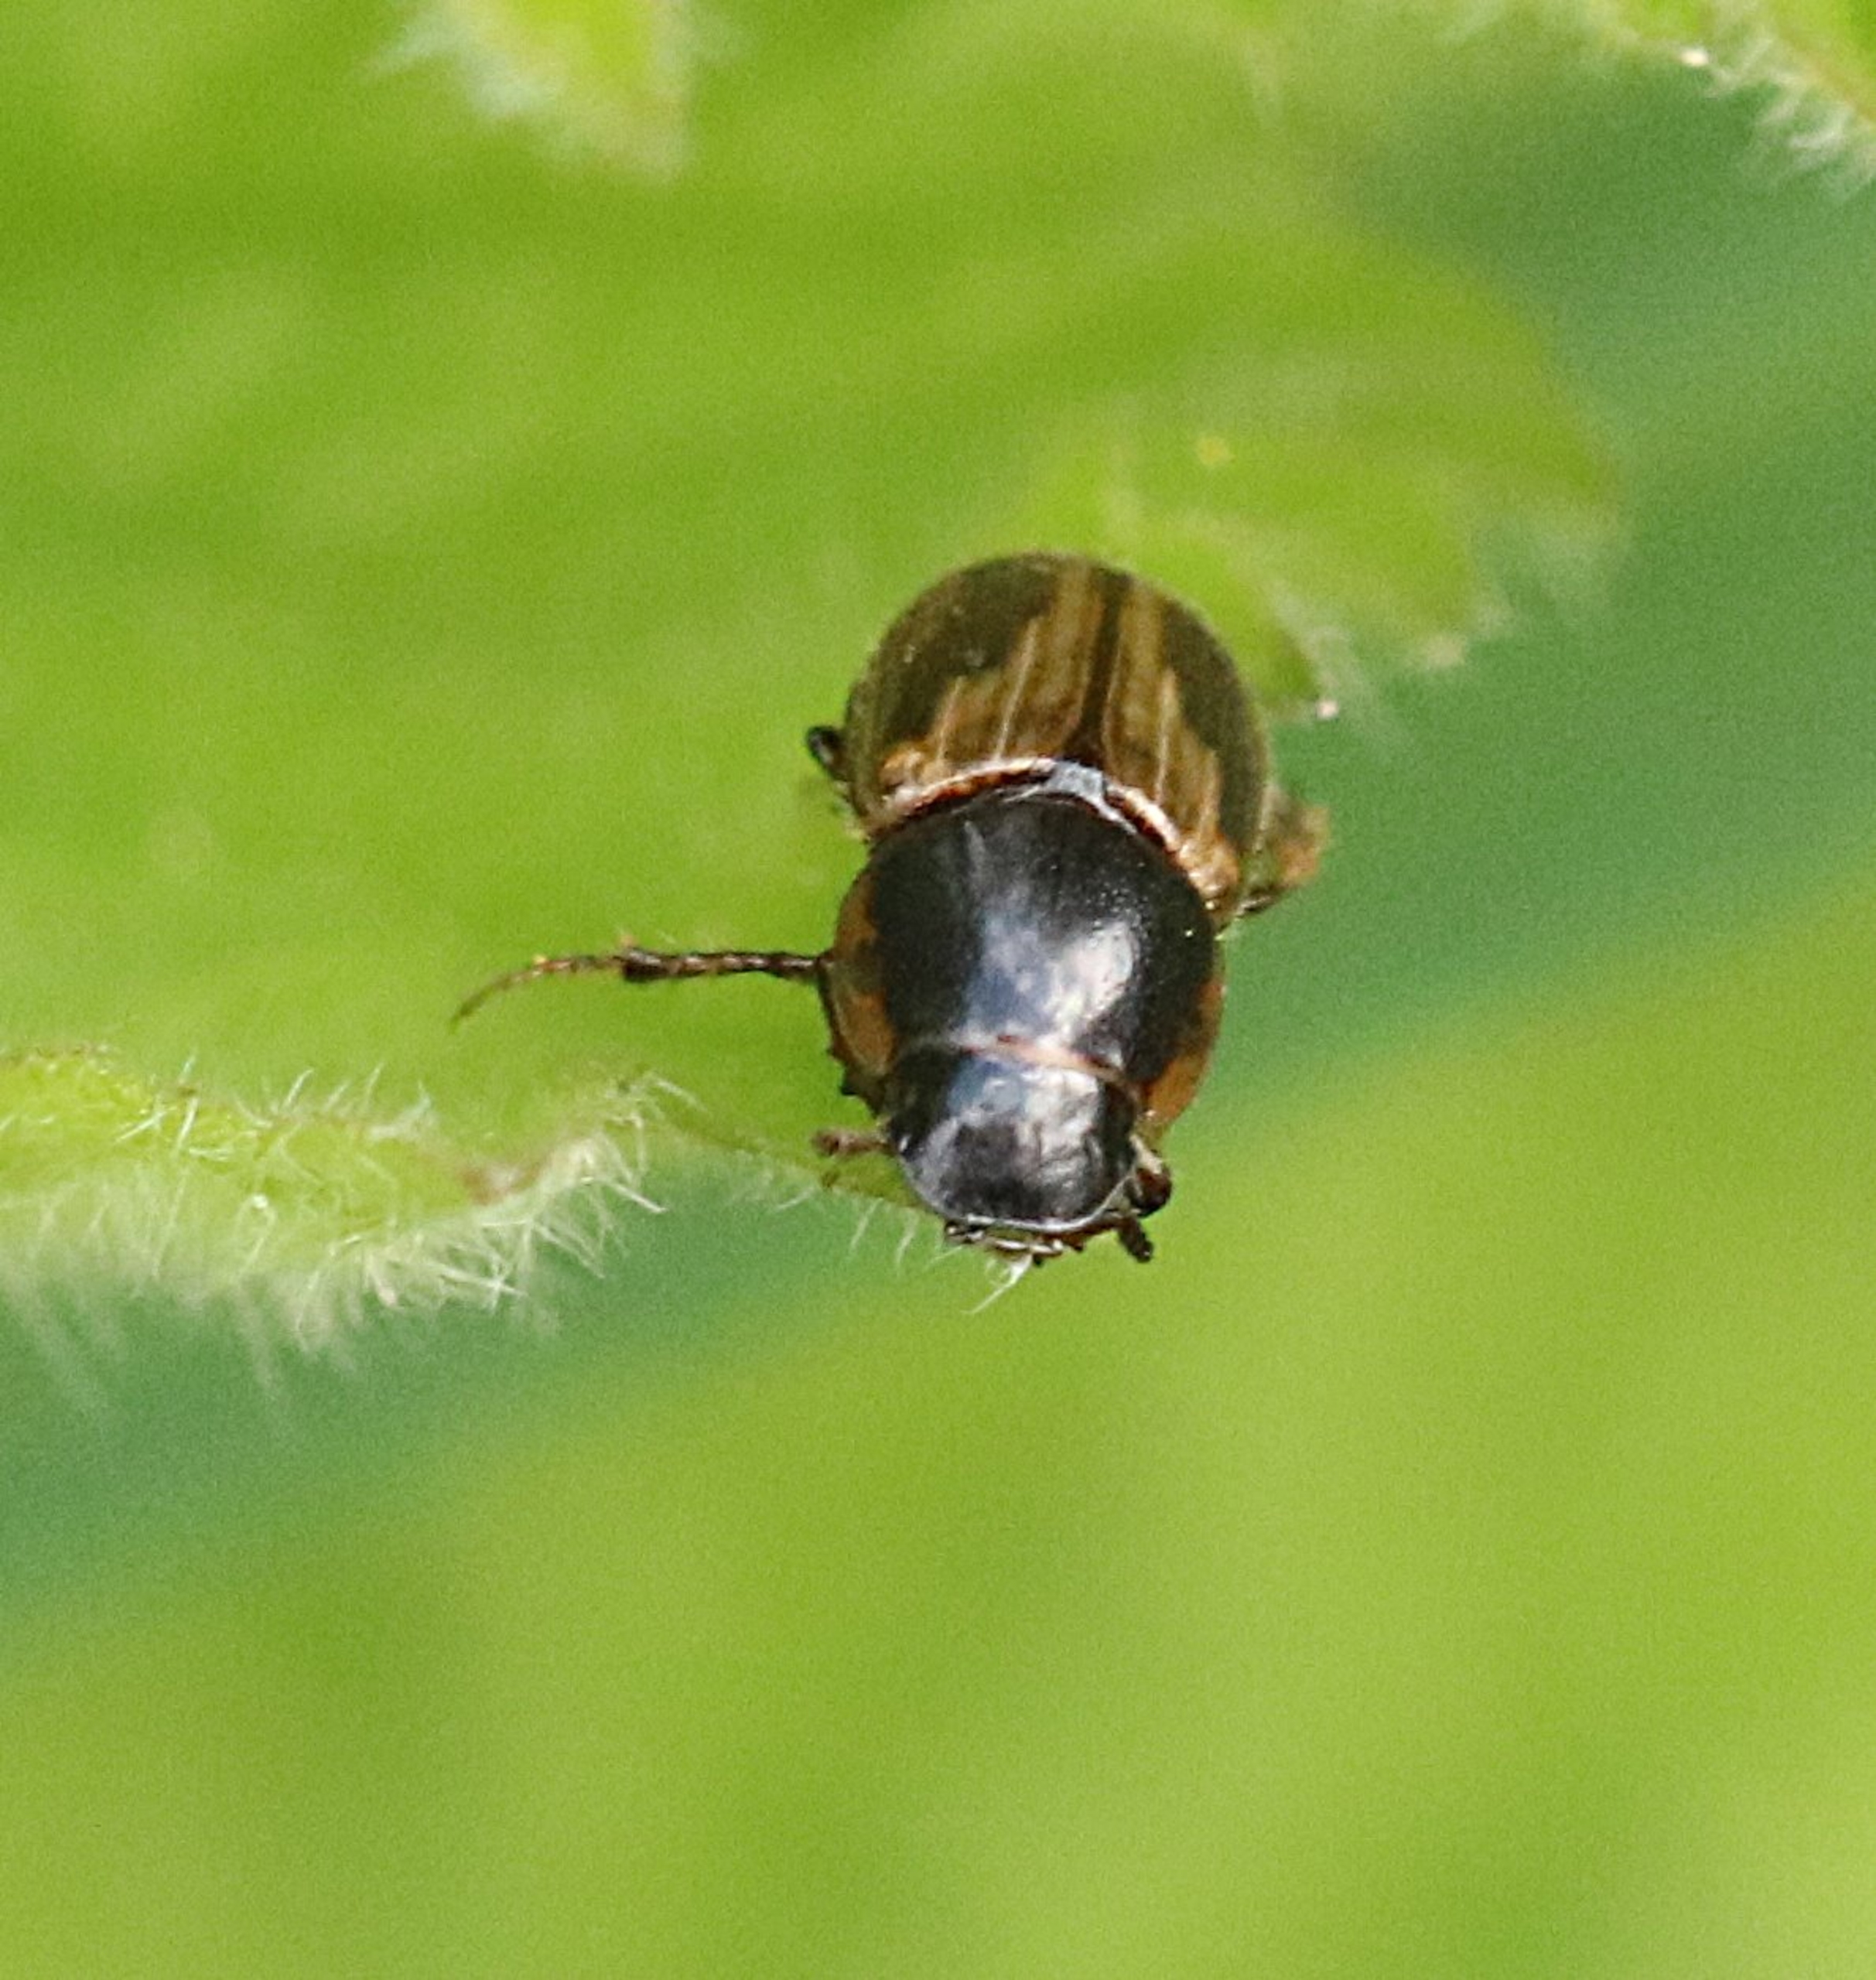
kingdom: Animalia
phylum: Arthropoda
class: Insecta
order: Coleoptera
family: Scarabaeidae
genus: Melinopterus
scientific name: Melinopterus prodromus
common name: Almindelig møgbille
